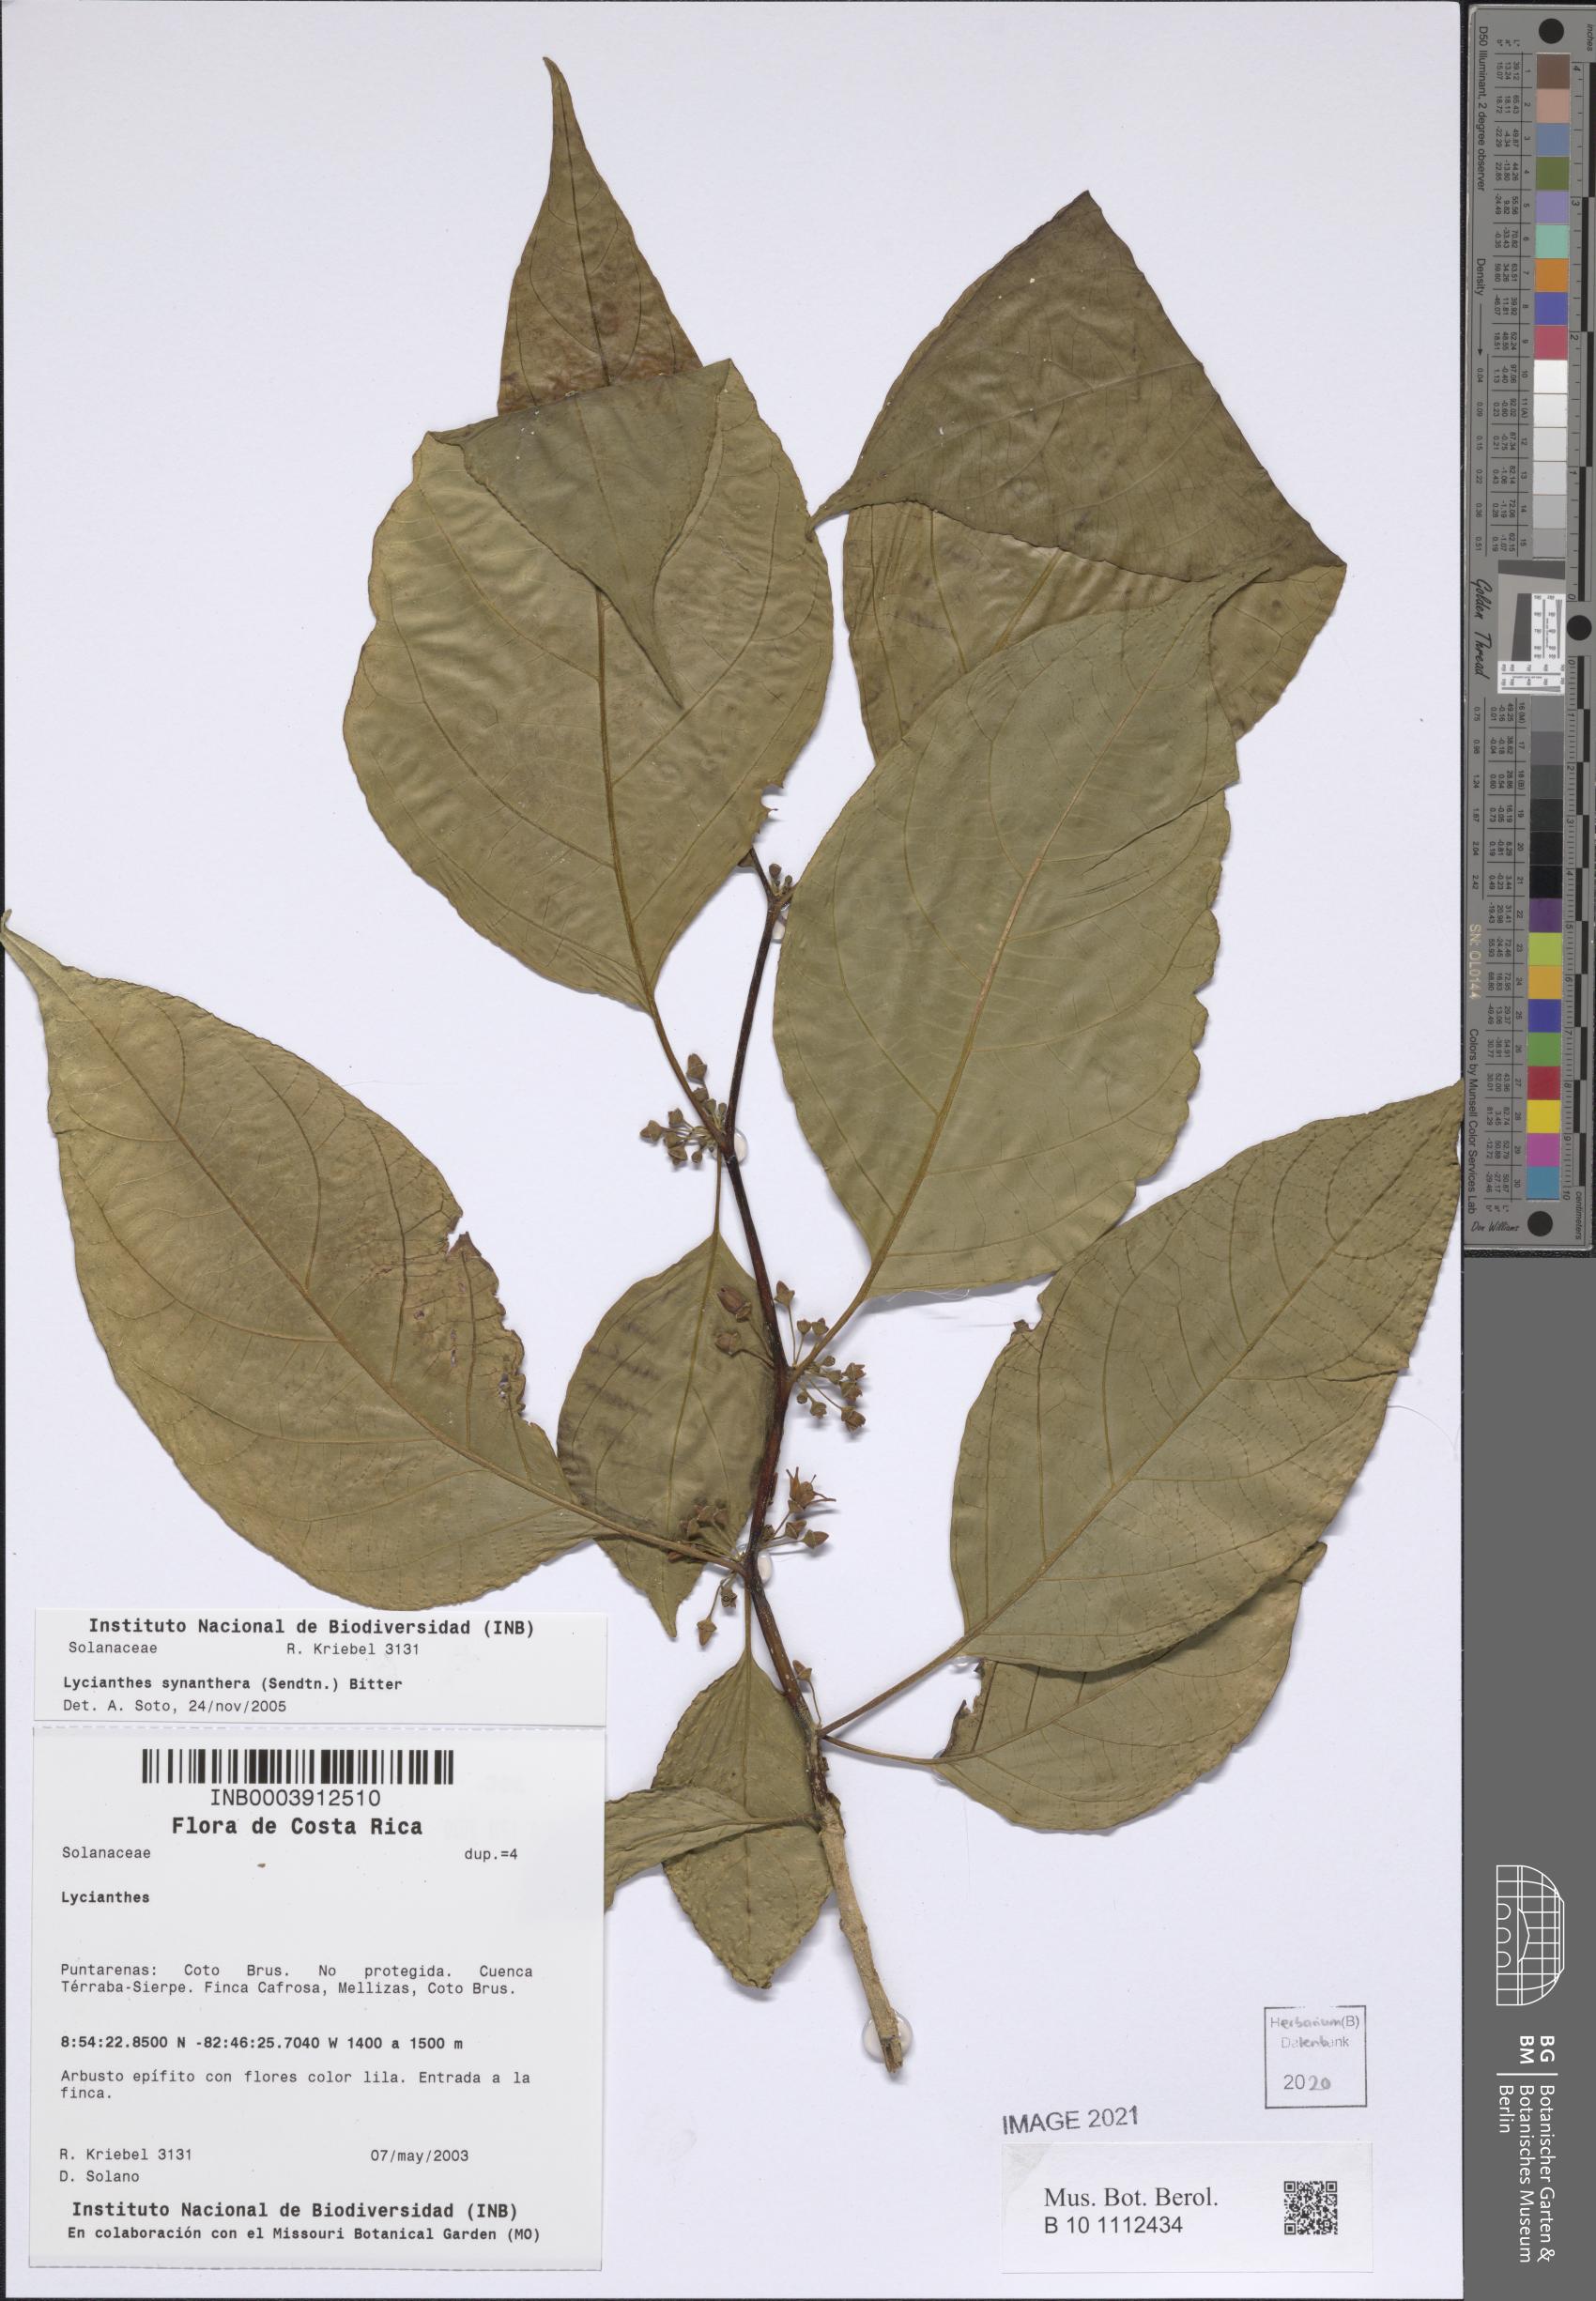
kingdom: Plantae
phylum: Tracheophyta
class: Magnoliopsida
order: Solanales
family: Solanaceae
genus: Lycianthes
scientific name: Lycianthes synanthera
